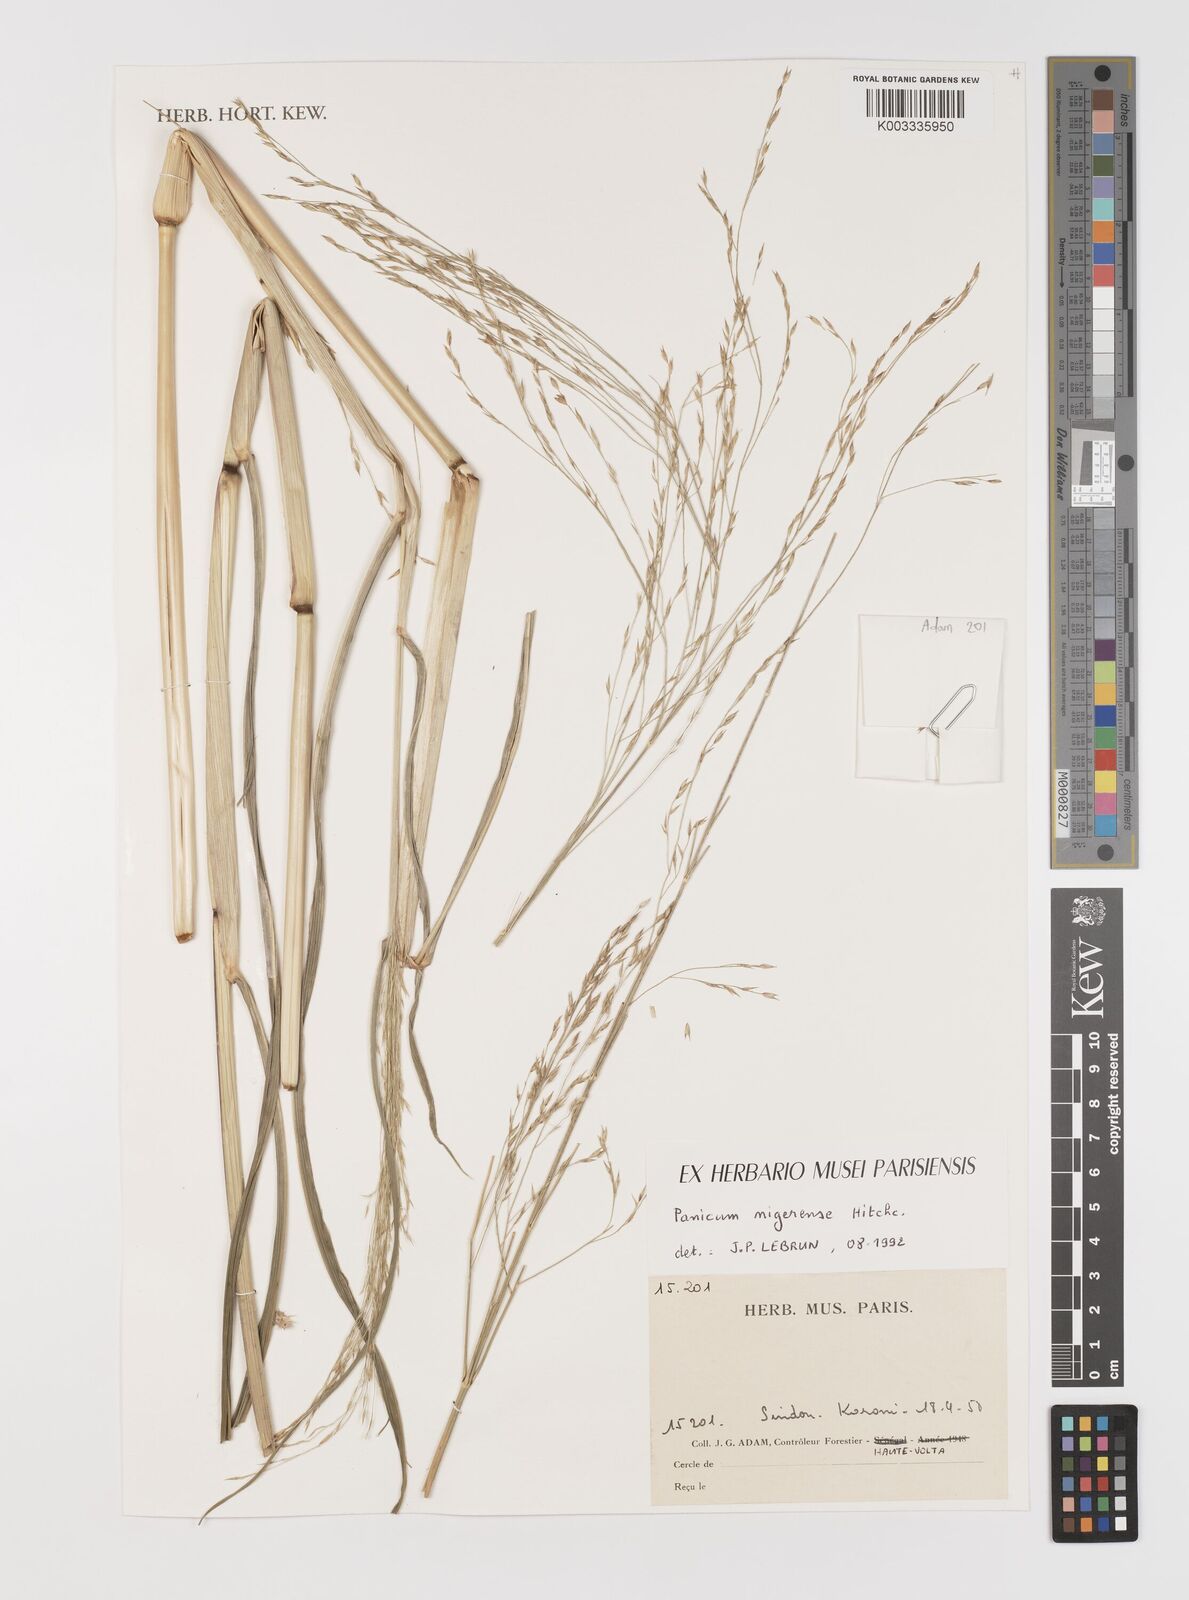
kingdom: Plantae
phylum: Tracheophyta
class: Liliopsida
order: Poales
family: Poaceae
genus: Panicum
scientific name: Panicum nigerense
